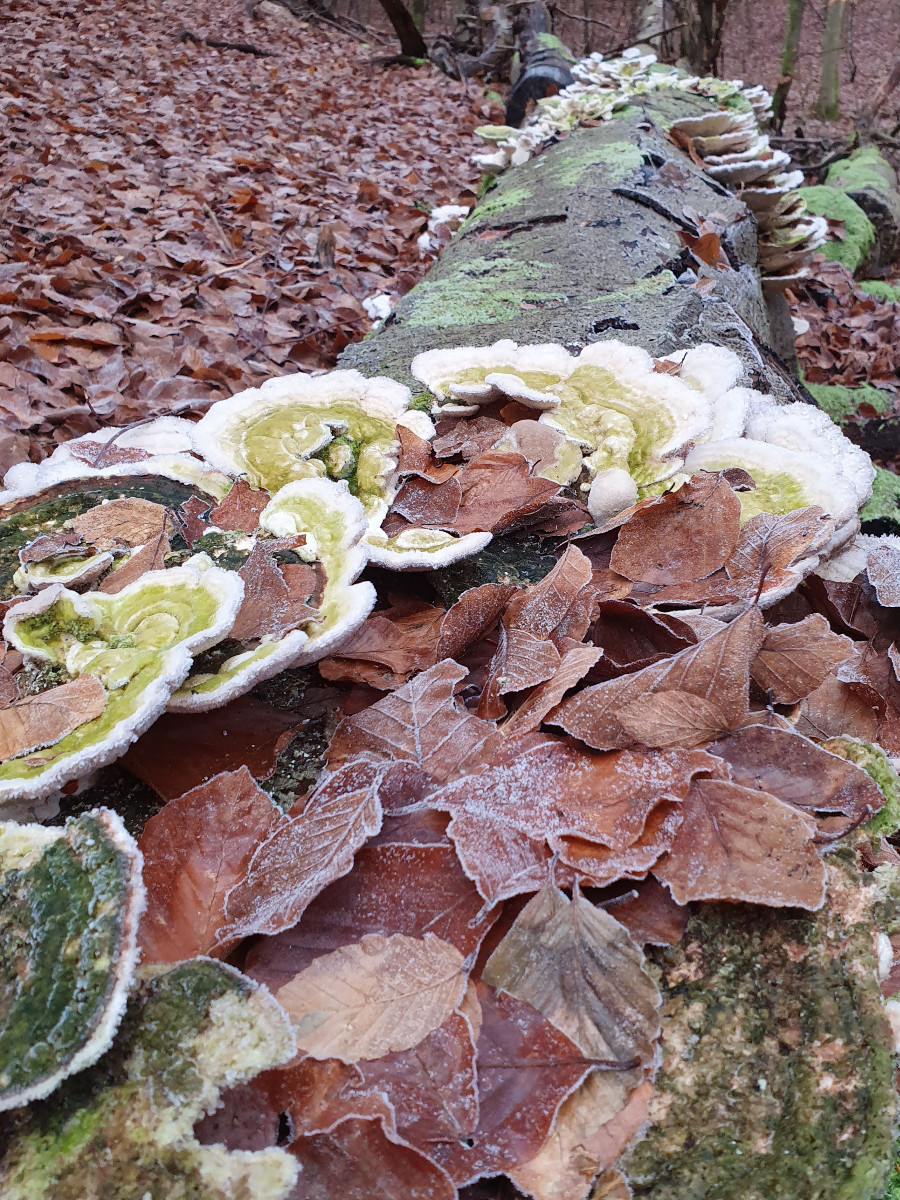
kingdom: Fungi
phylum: Basidiomycota
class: Agaricomycetes
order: Polyporales
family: Polyporaceae
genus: Trametes
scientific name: Trametes gibbosa
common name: puklet læderporesvamp
